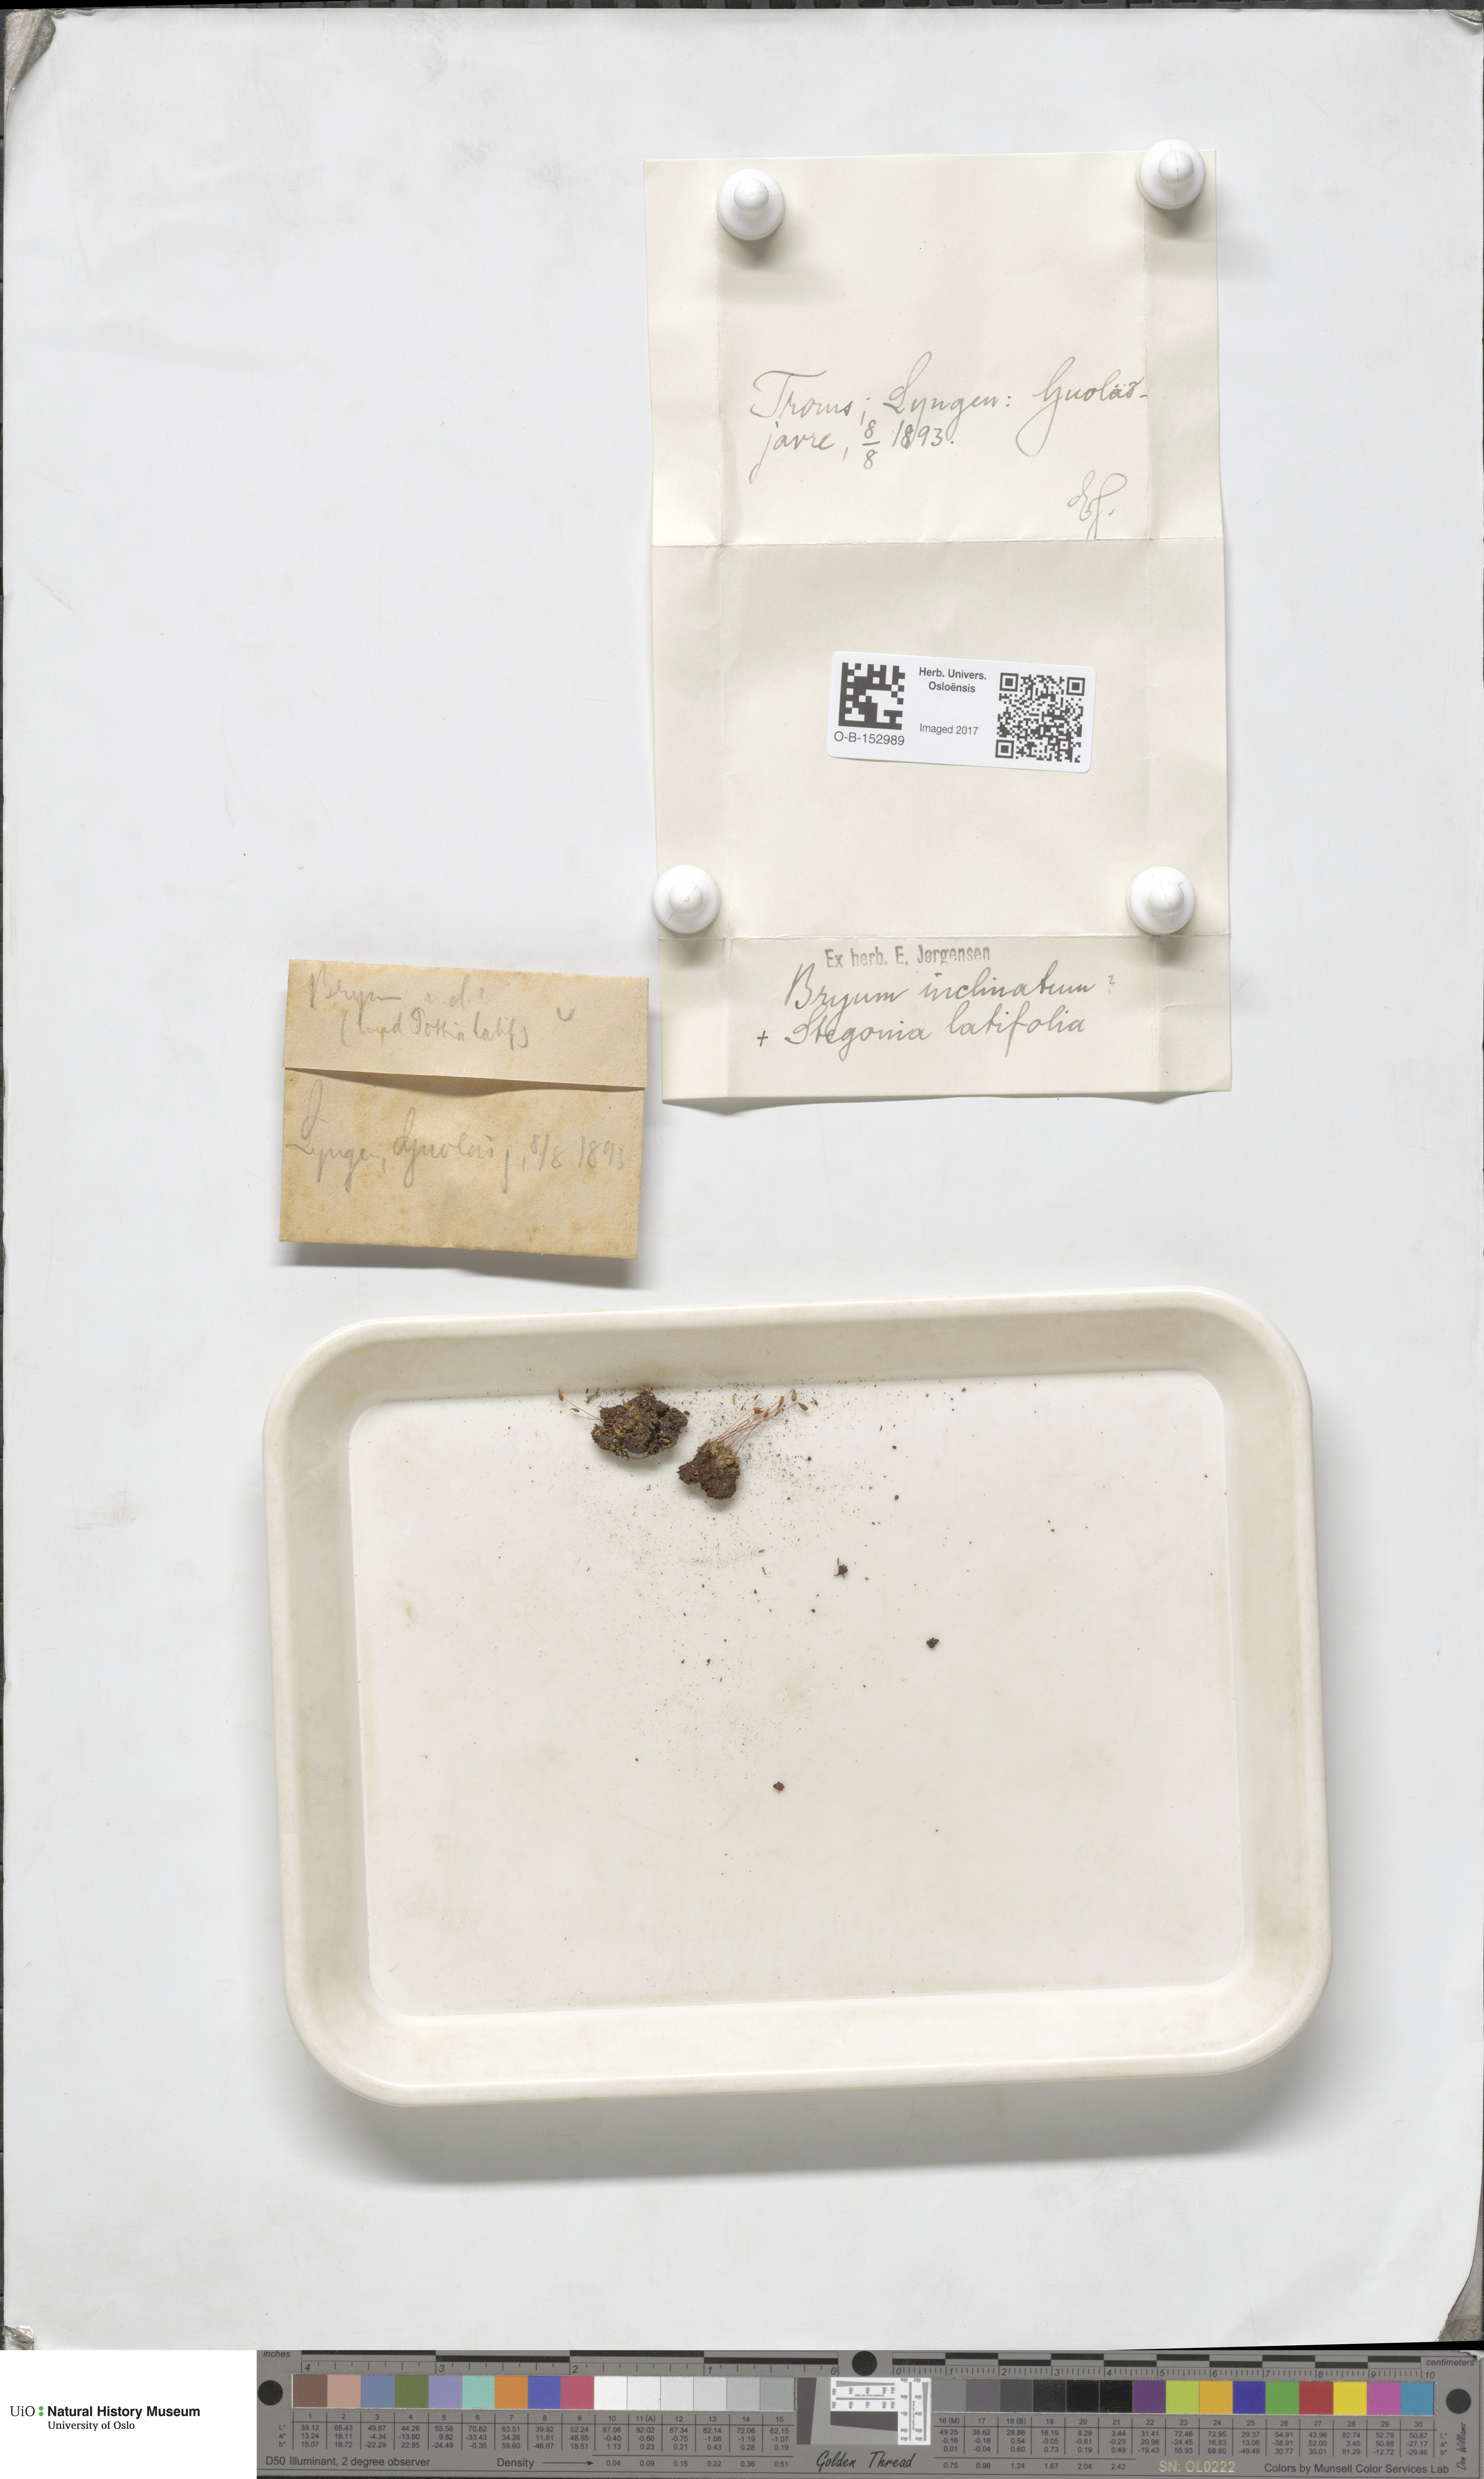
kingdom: Plantae
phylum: Bryophyta
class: Bryopsida
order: Bryales
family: Bryaceae
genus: Ptychostomum
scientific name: Ptychostomum inclinatum
